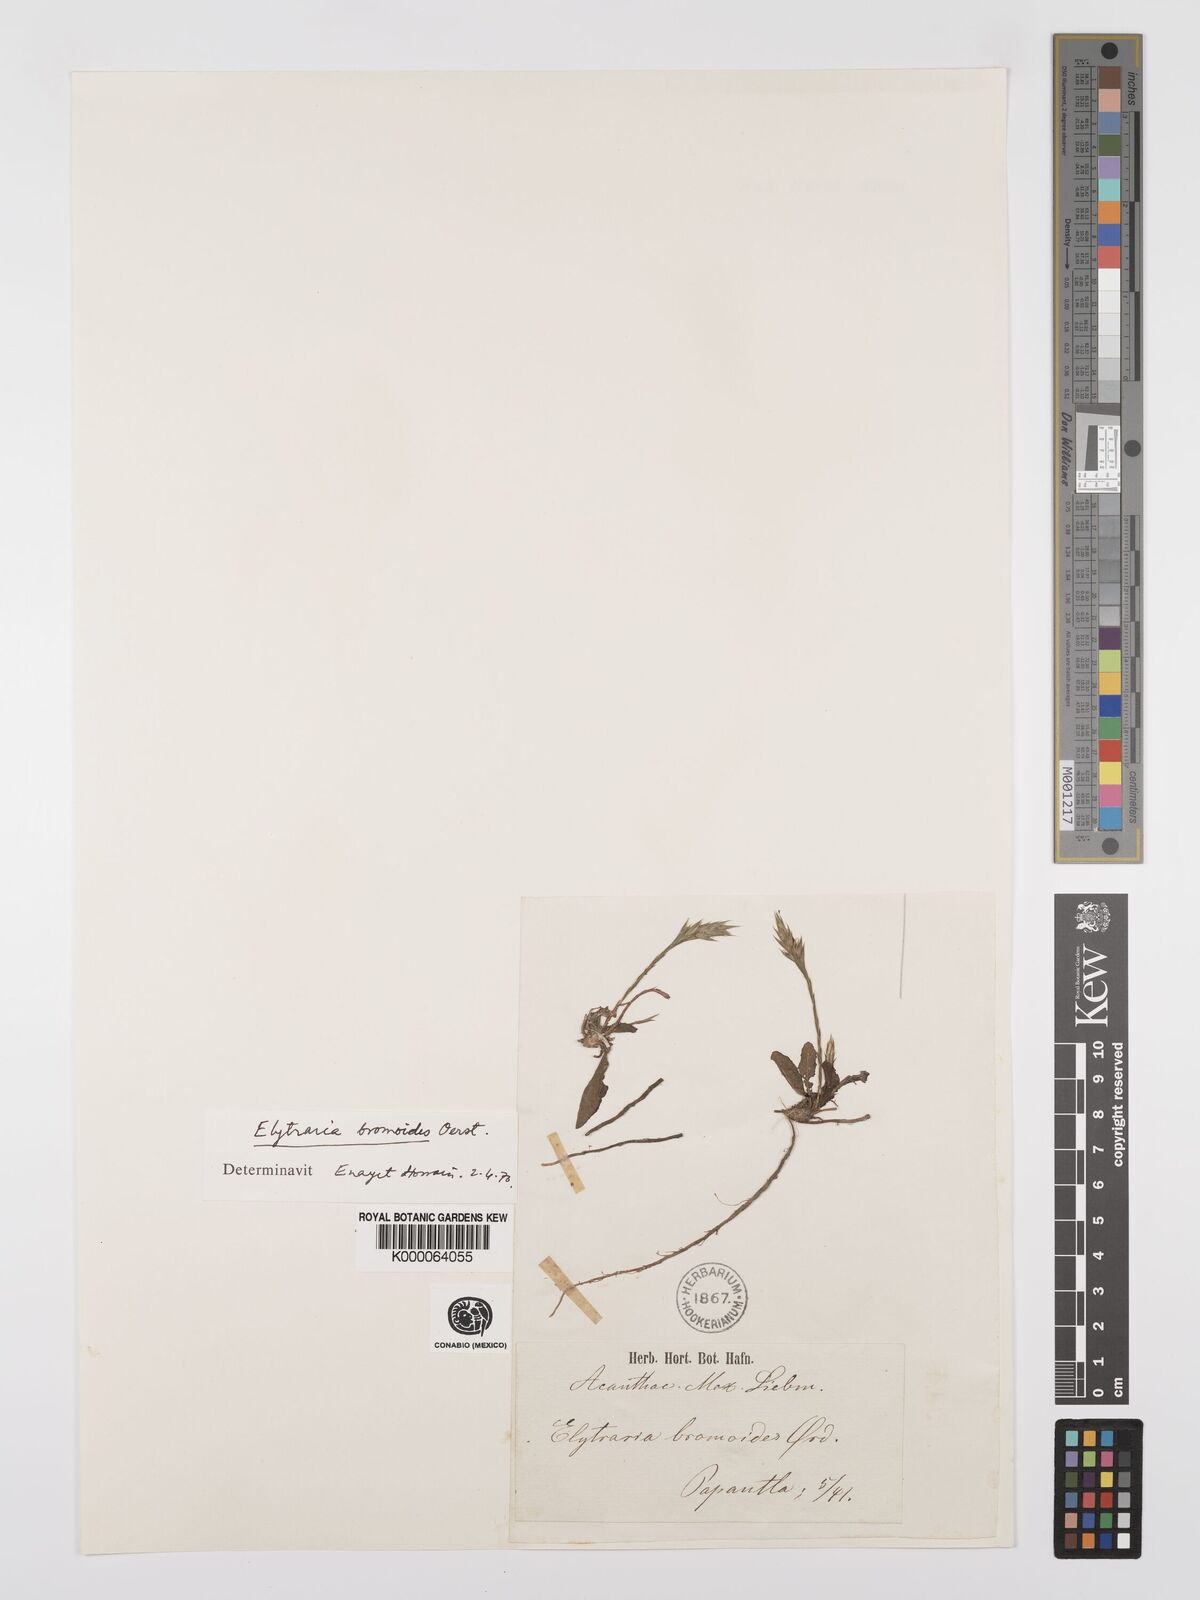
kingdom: Plantae
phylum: Tracheophyta
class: Magnoliopsida
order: Lamiales
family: Acanthaceae
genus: Elytraria
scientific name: Elytraria bromoides
